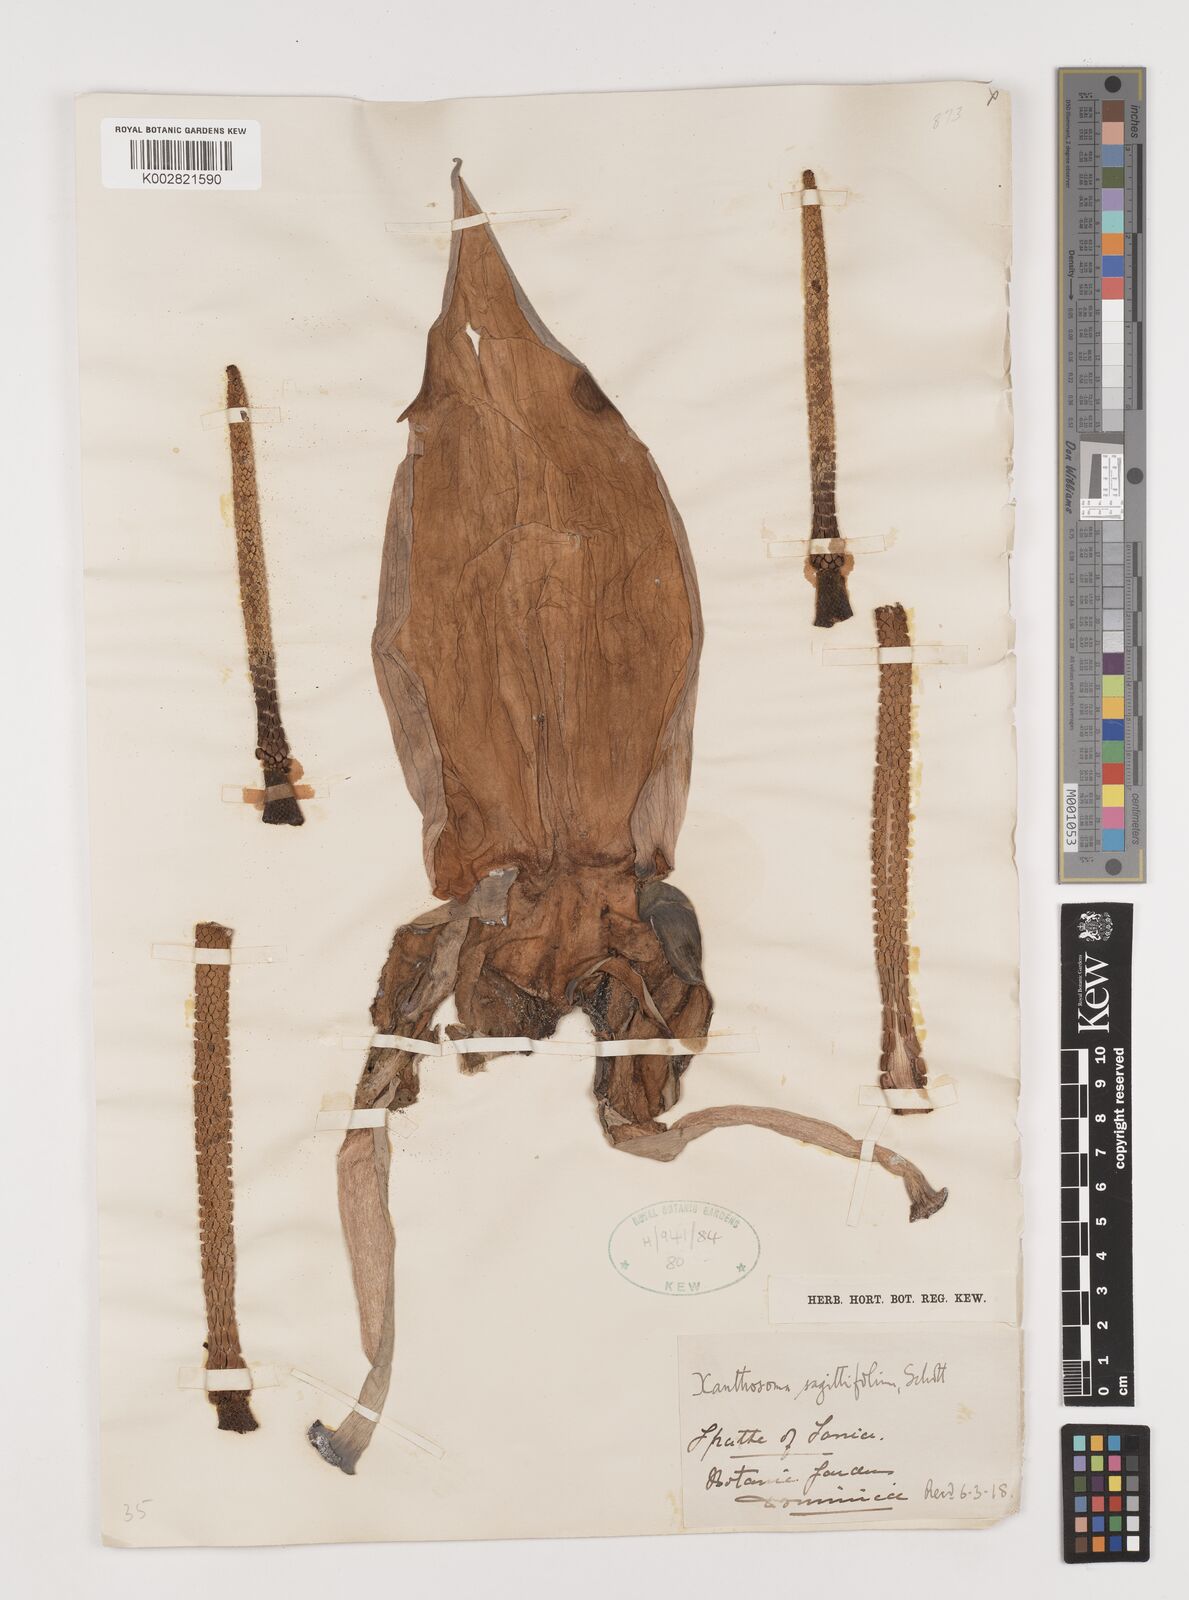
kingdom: Plantae
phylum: Tracheophyta
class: Liliopsida
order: Alismatales
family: Araceae
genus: Xanthosoma
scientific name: Xanthosoma sagittifolium
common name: Arrowleaf elephant's ear
